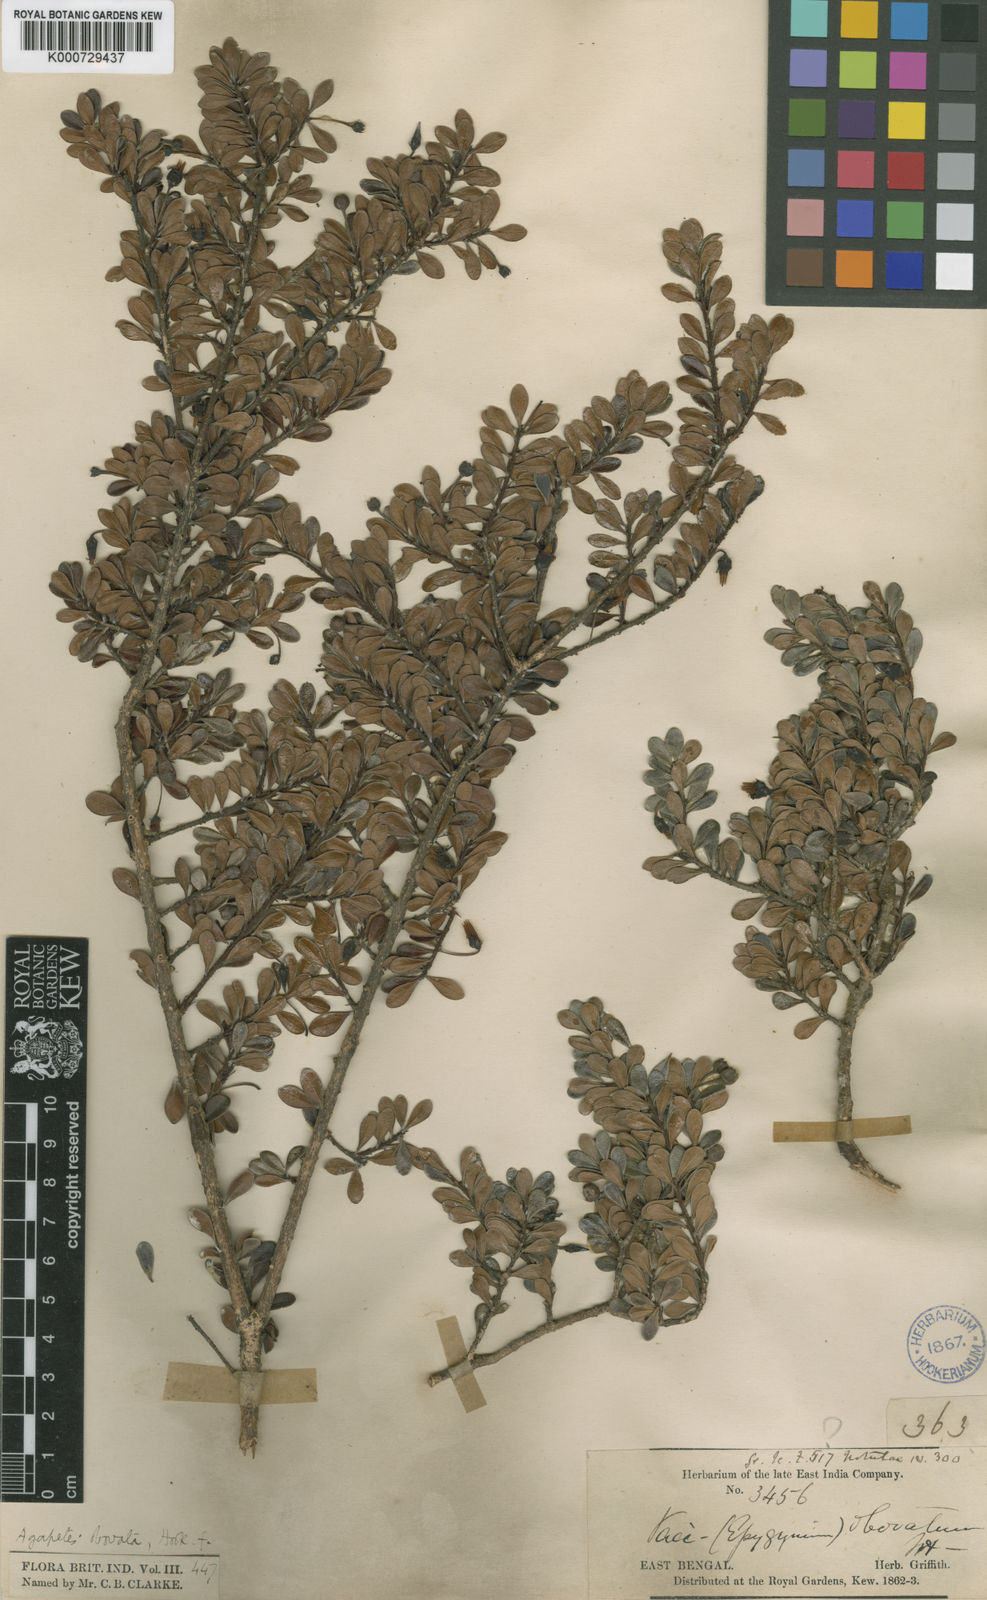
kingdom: Plantae
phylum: Tracheophyta
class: Magnoliopsida
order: Ericales
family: Ericaceae
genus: Agapetes
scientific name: Agapetes obovata
